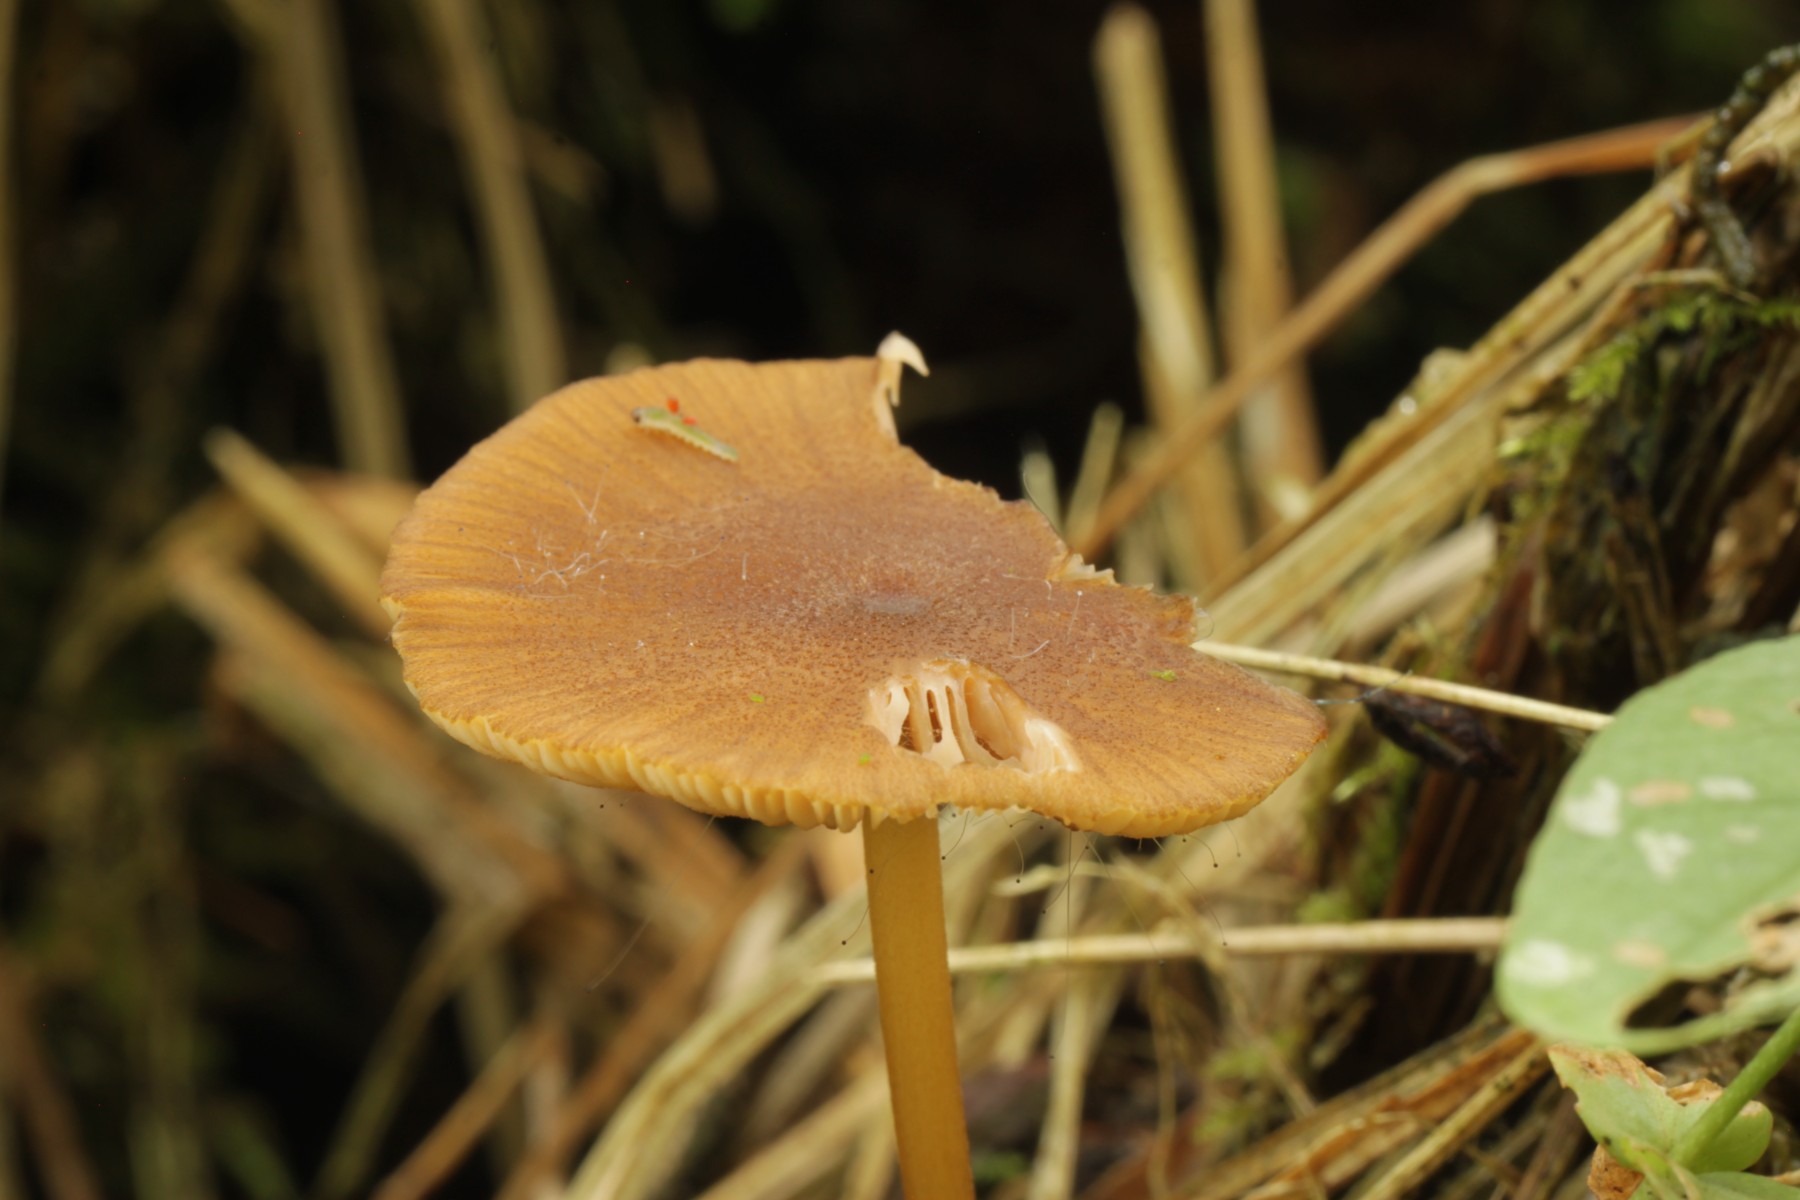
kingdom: Fungi
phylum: Basidiomycota
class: Agaricomycetes
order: Agaricales
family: Entolomataceae
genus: Entoloma
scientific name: Entoloma formosum
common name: brungul rødblad
